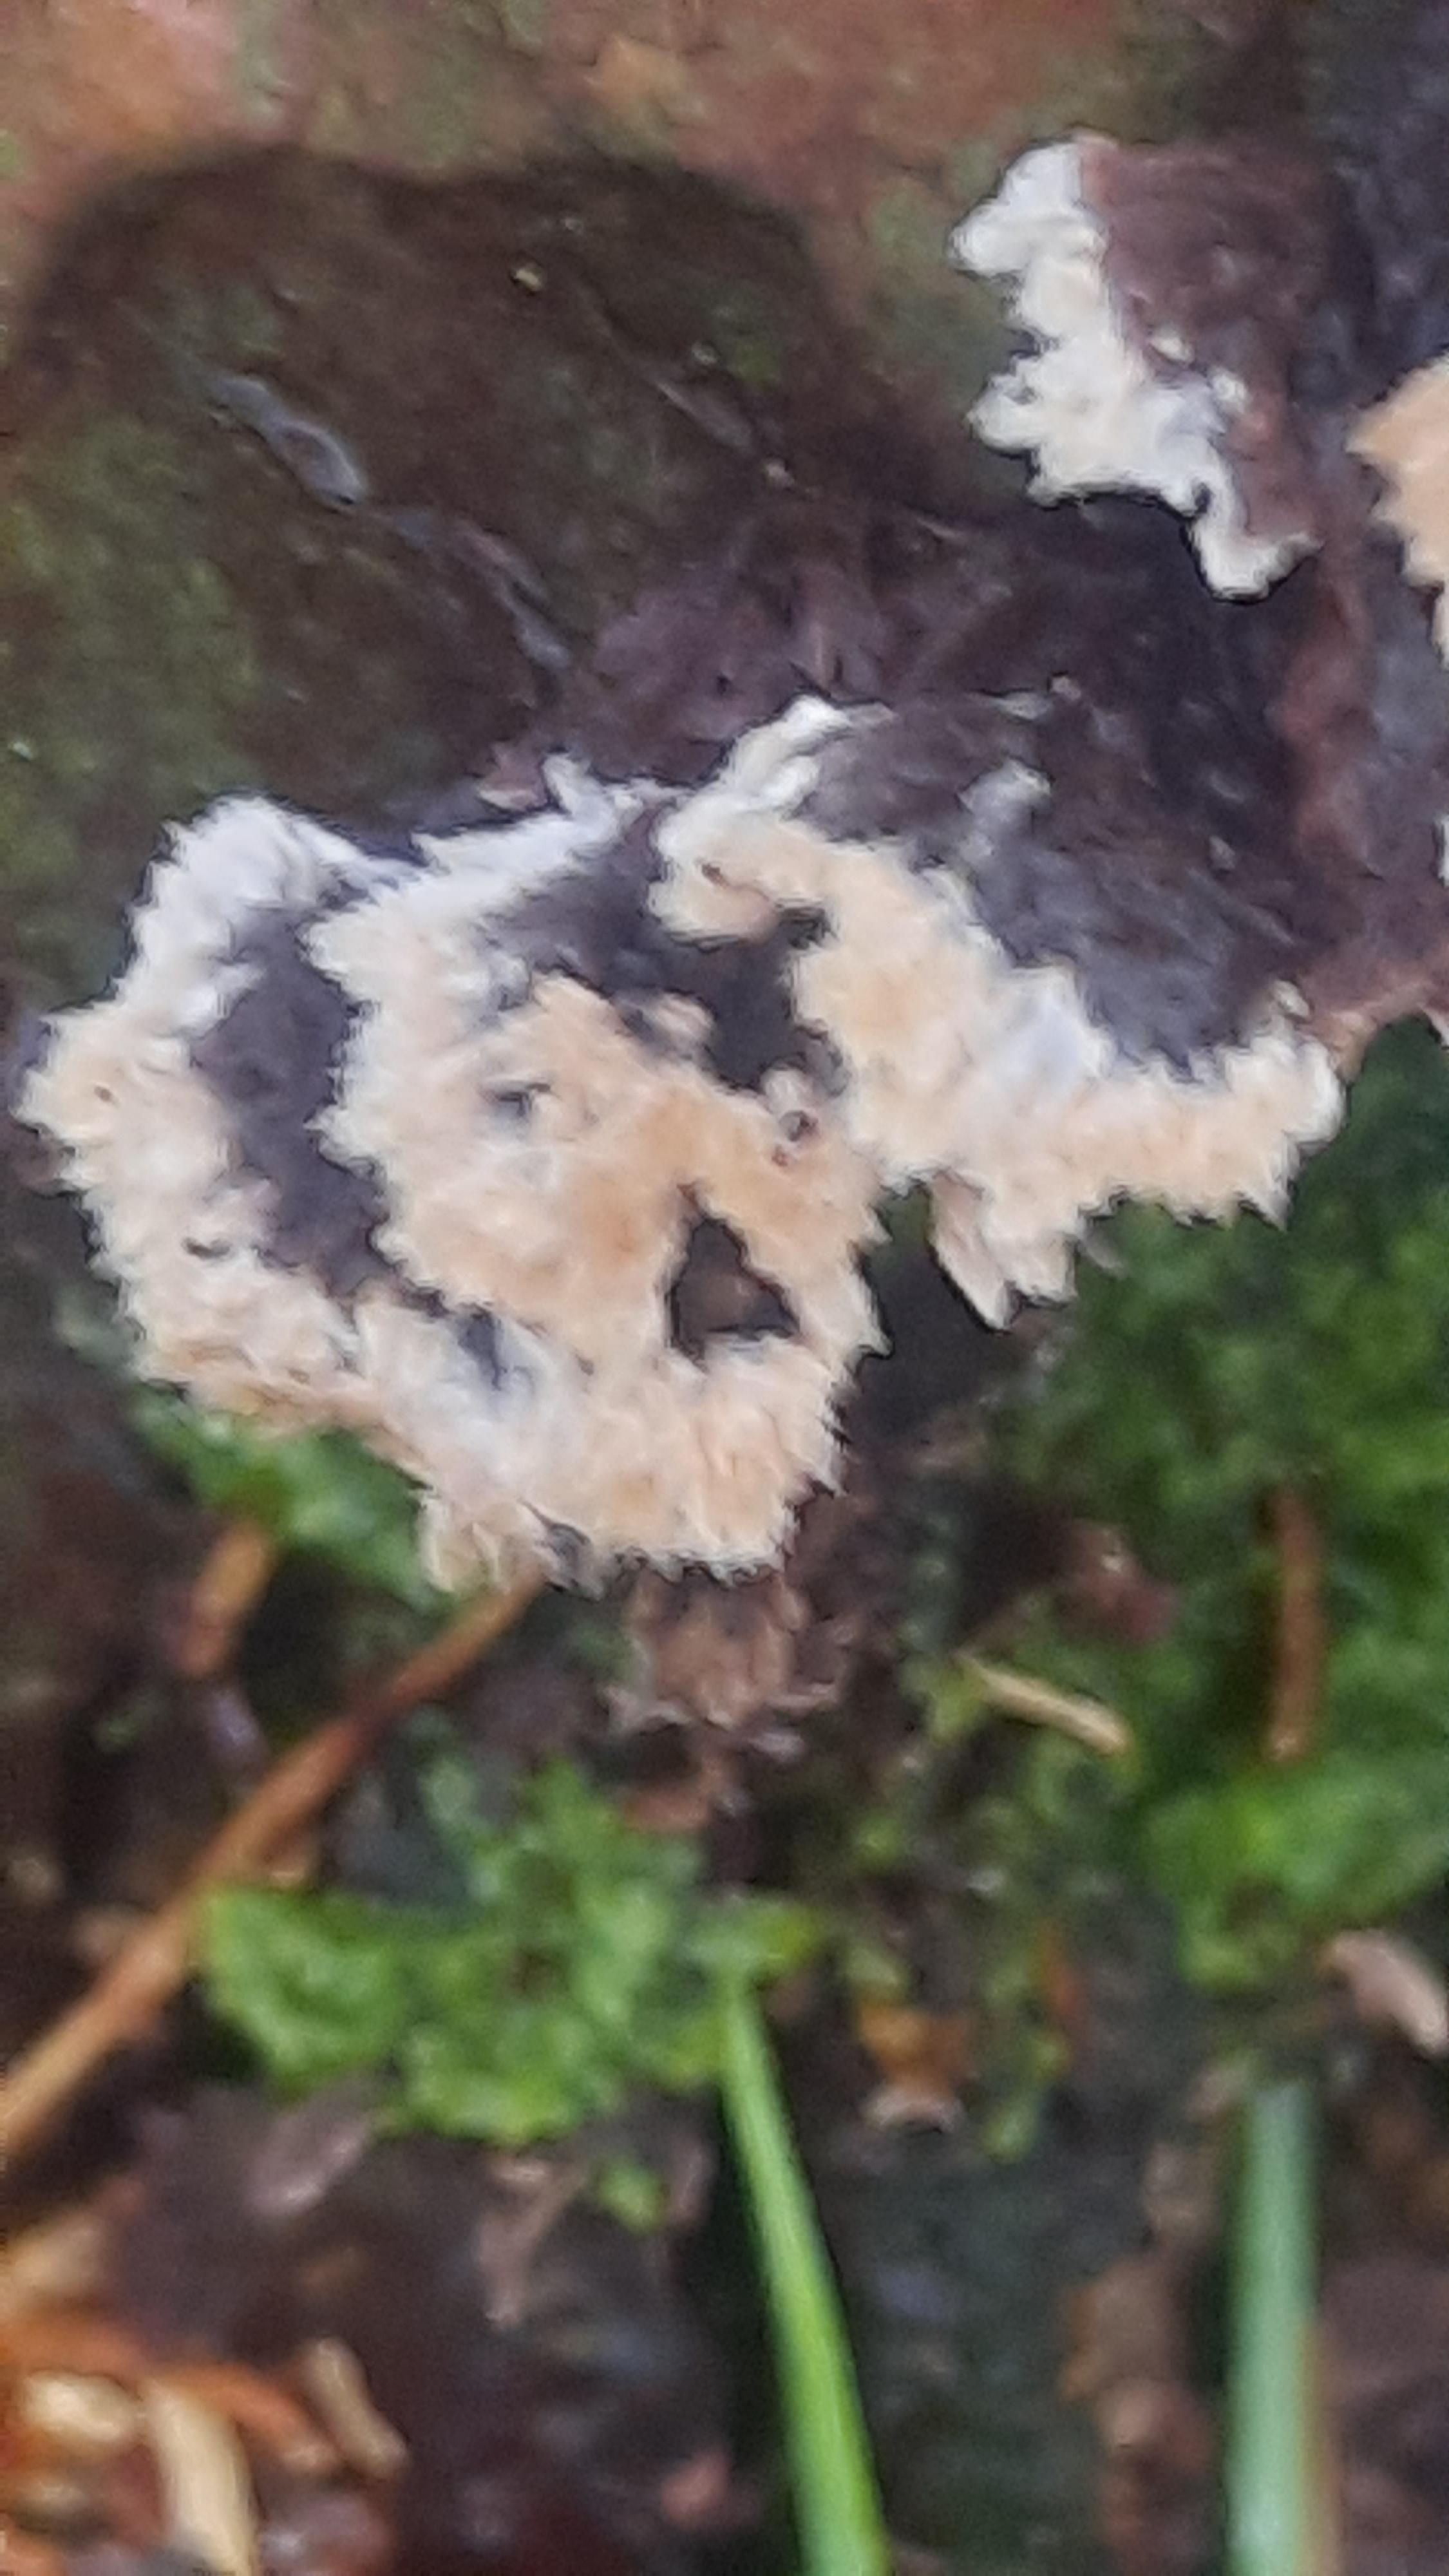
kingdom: Fungi
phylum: Basidiomycota
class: Agaricomycetes
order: Thelephorales
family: Thelephoraceae
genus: Thelephora
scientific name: Thelephora terrestris
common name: fliget frynsesvamp
